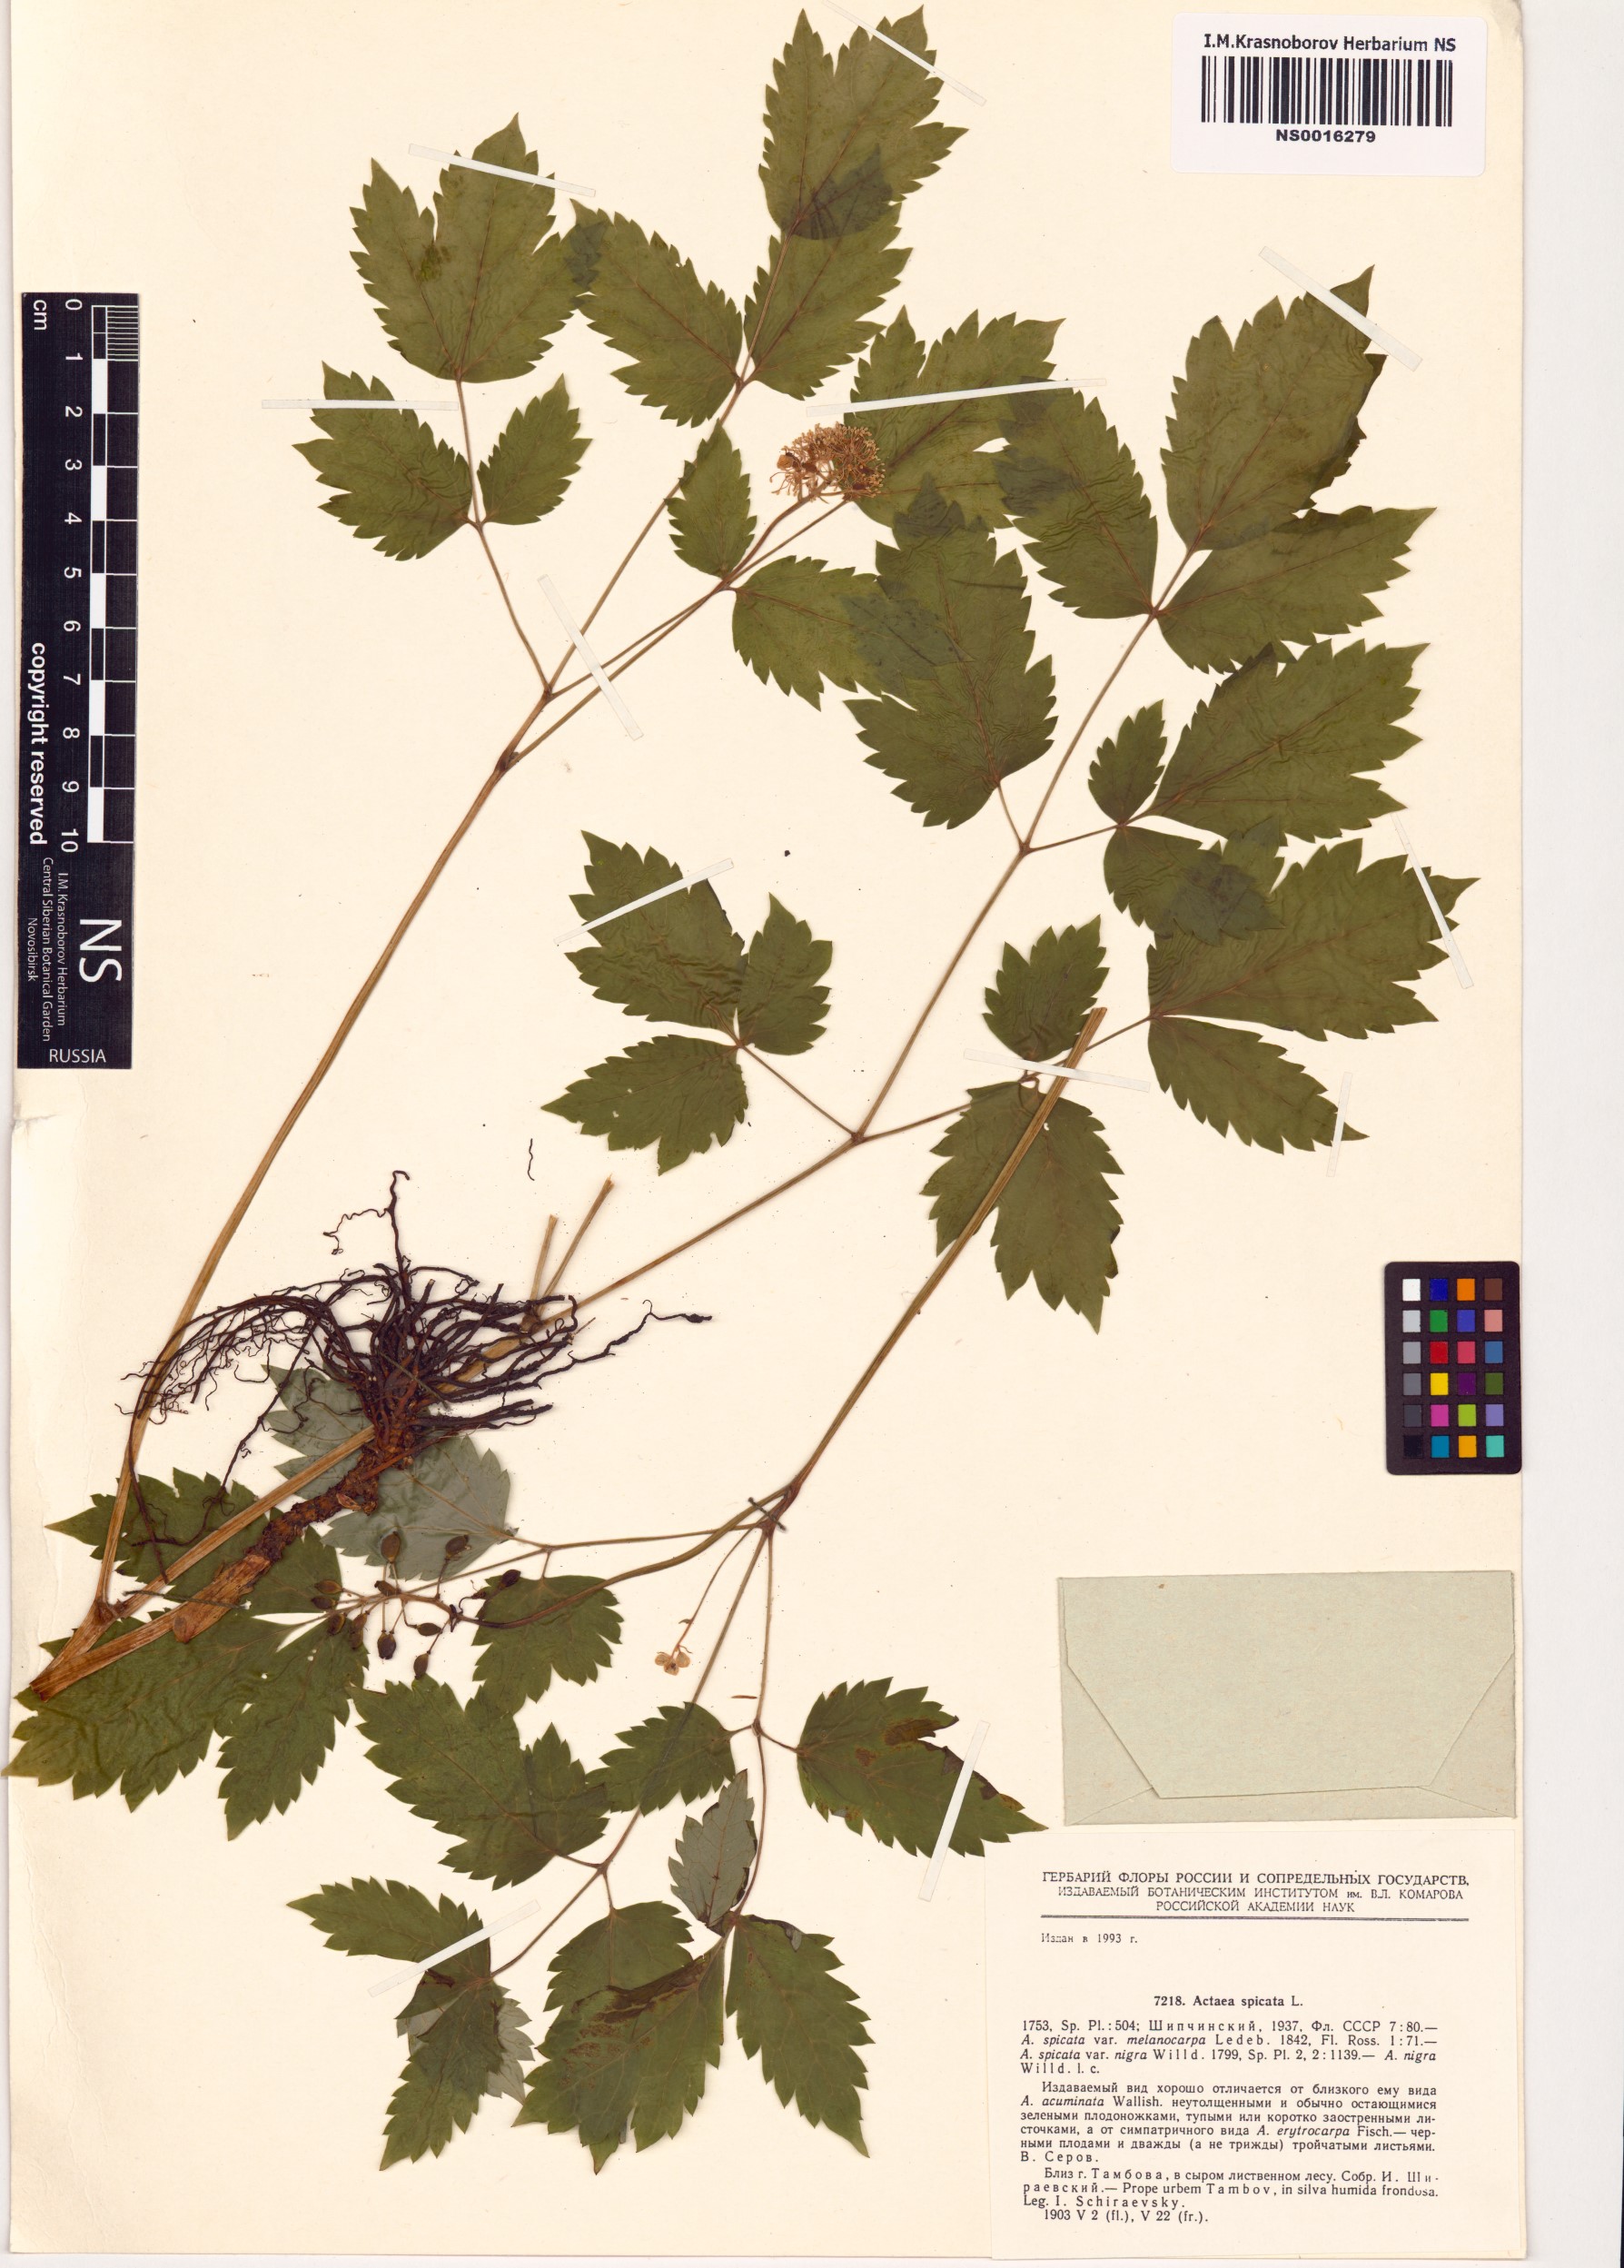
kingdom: Plantae
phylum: Tracheophyta
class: Magnoliopsida
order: Ranunculales
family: Ranunculaceae
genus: Actaea
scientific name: Actaea spicata
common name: Baneberry
